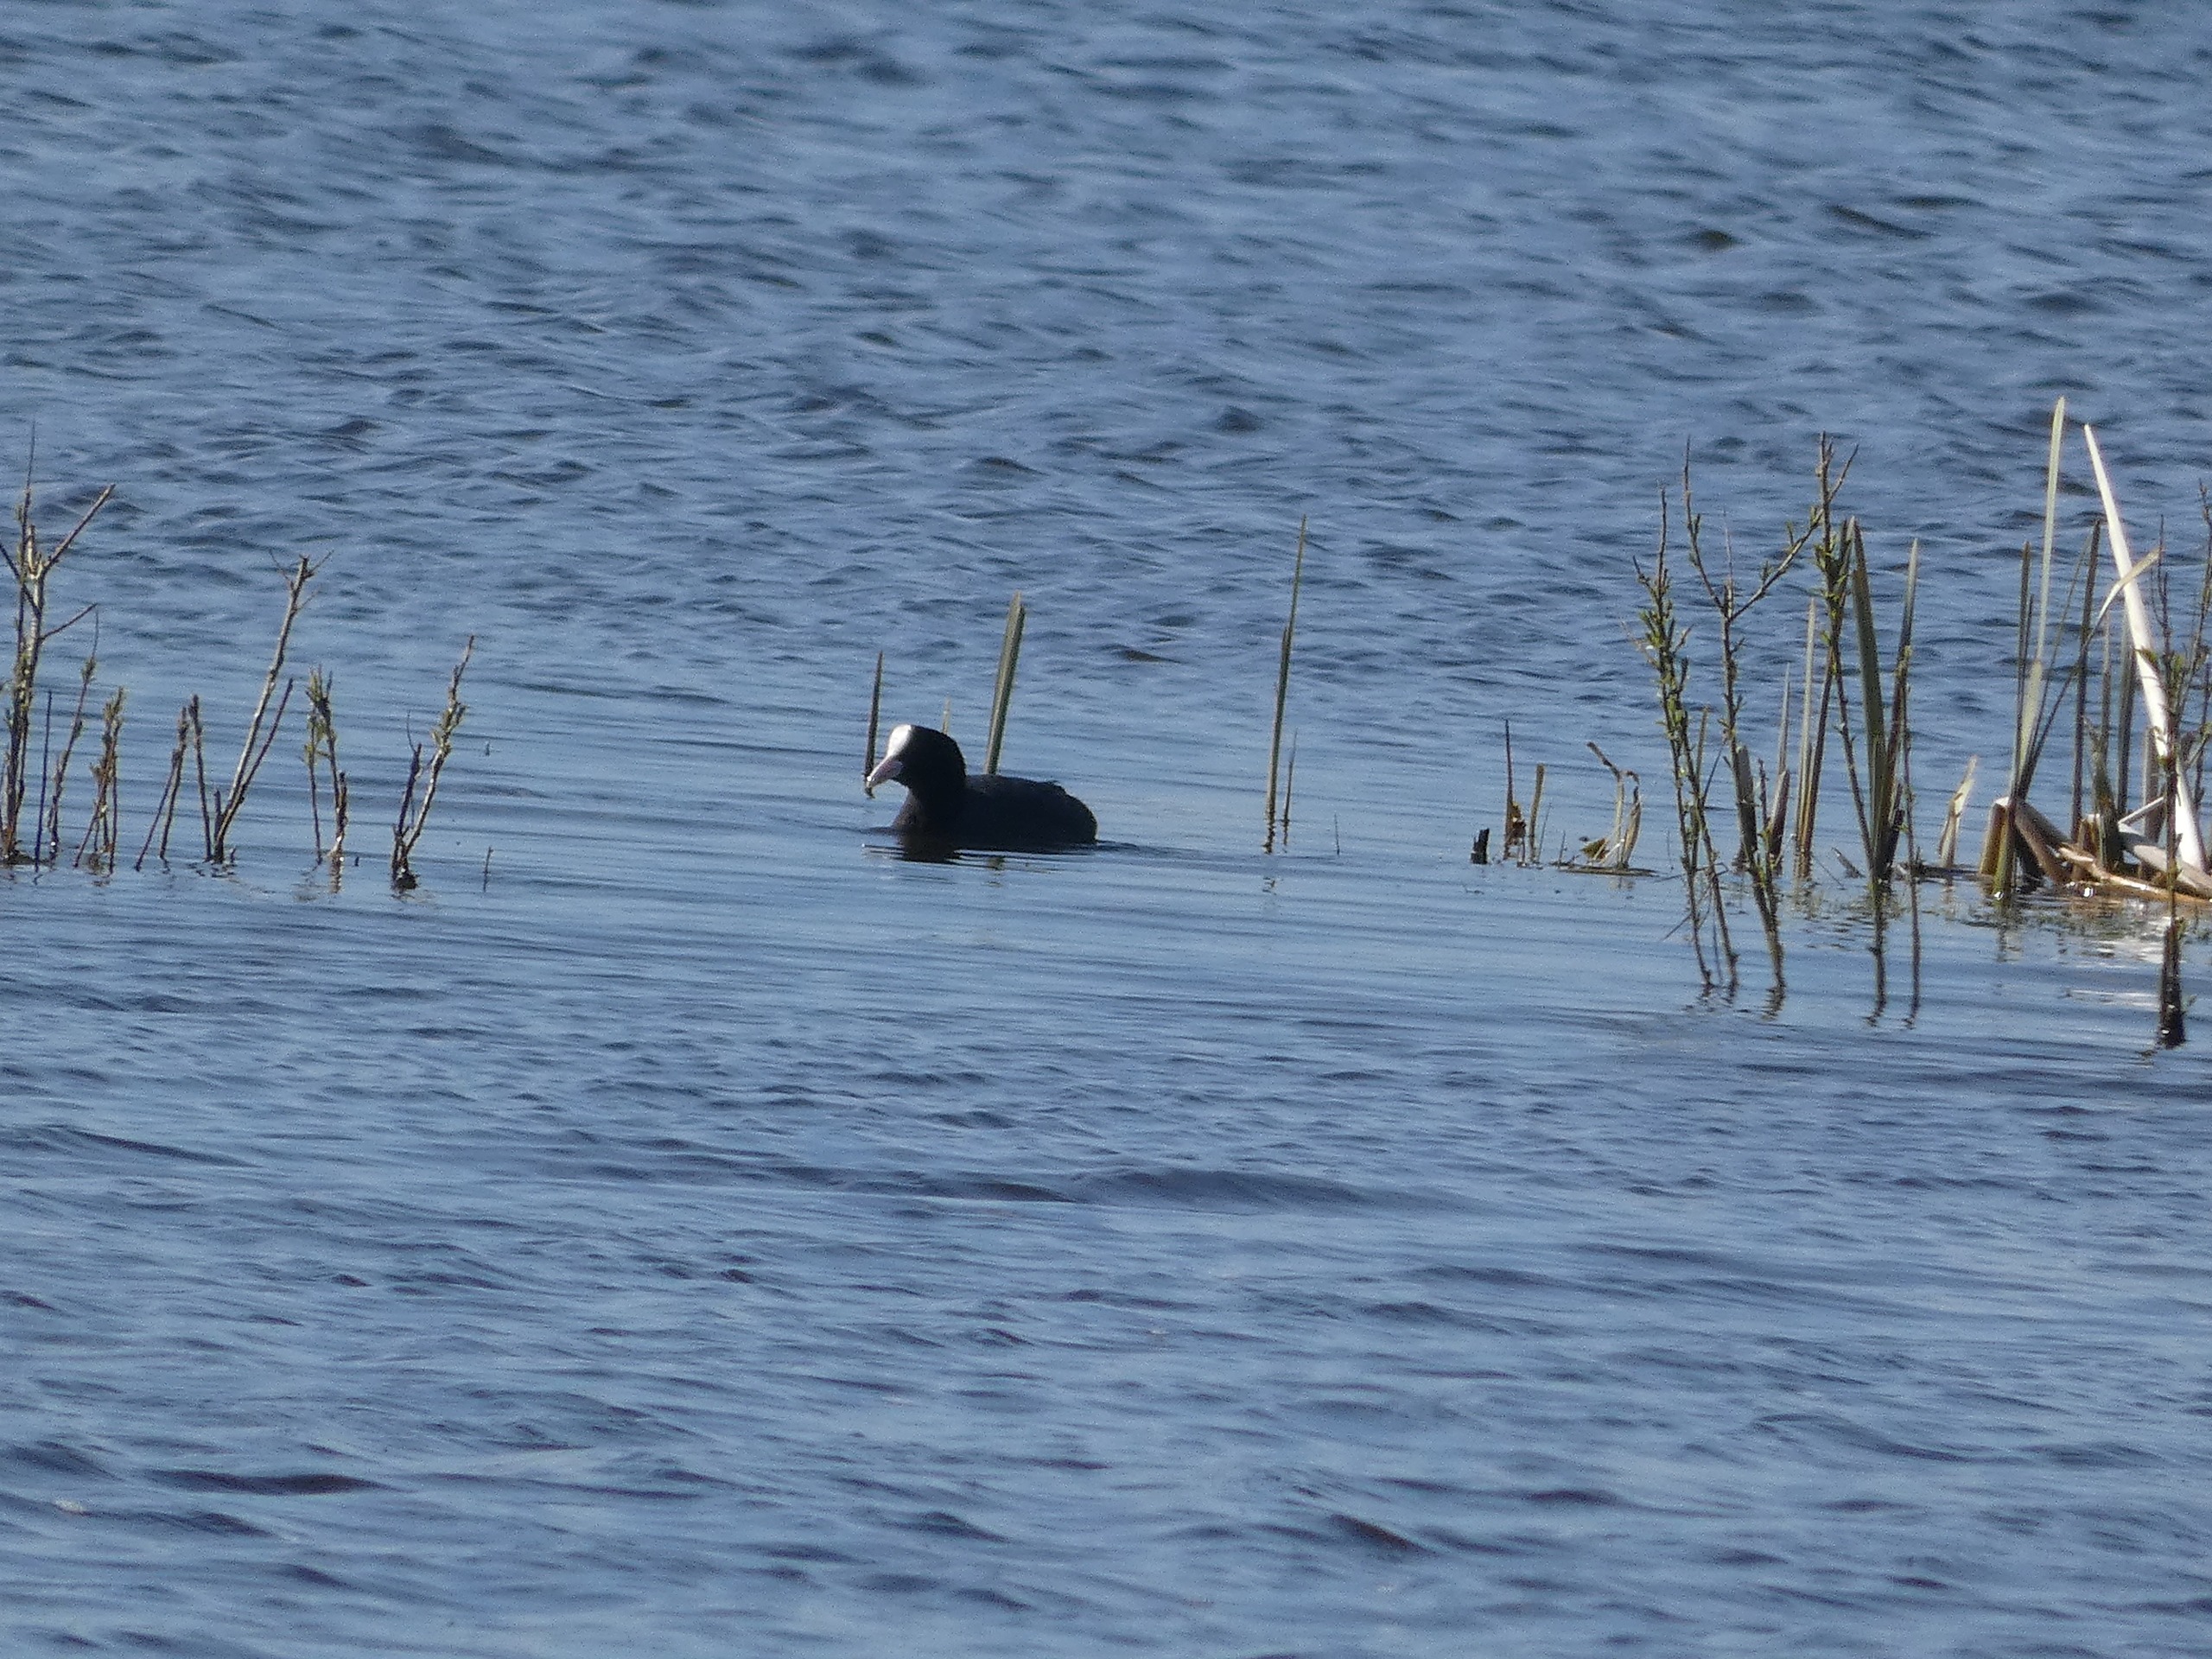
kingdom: Animalia
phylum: Chordata
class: Aves
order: Gruiformes
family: Rallidae
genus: Fulica
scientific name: Fulica atra
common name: Blishøne
